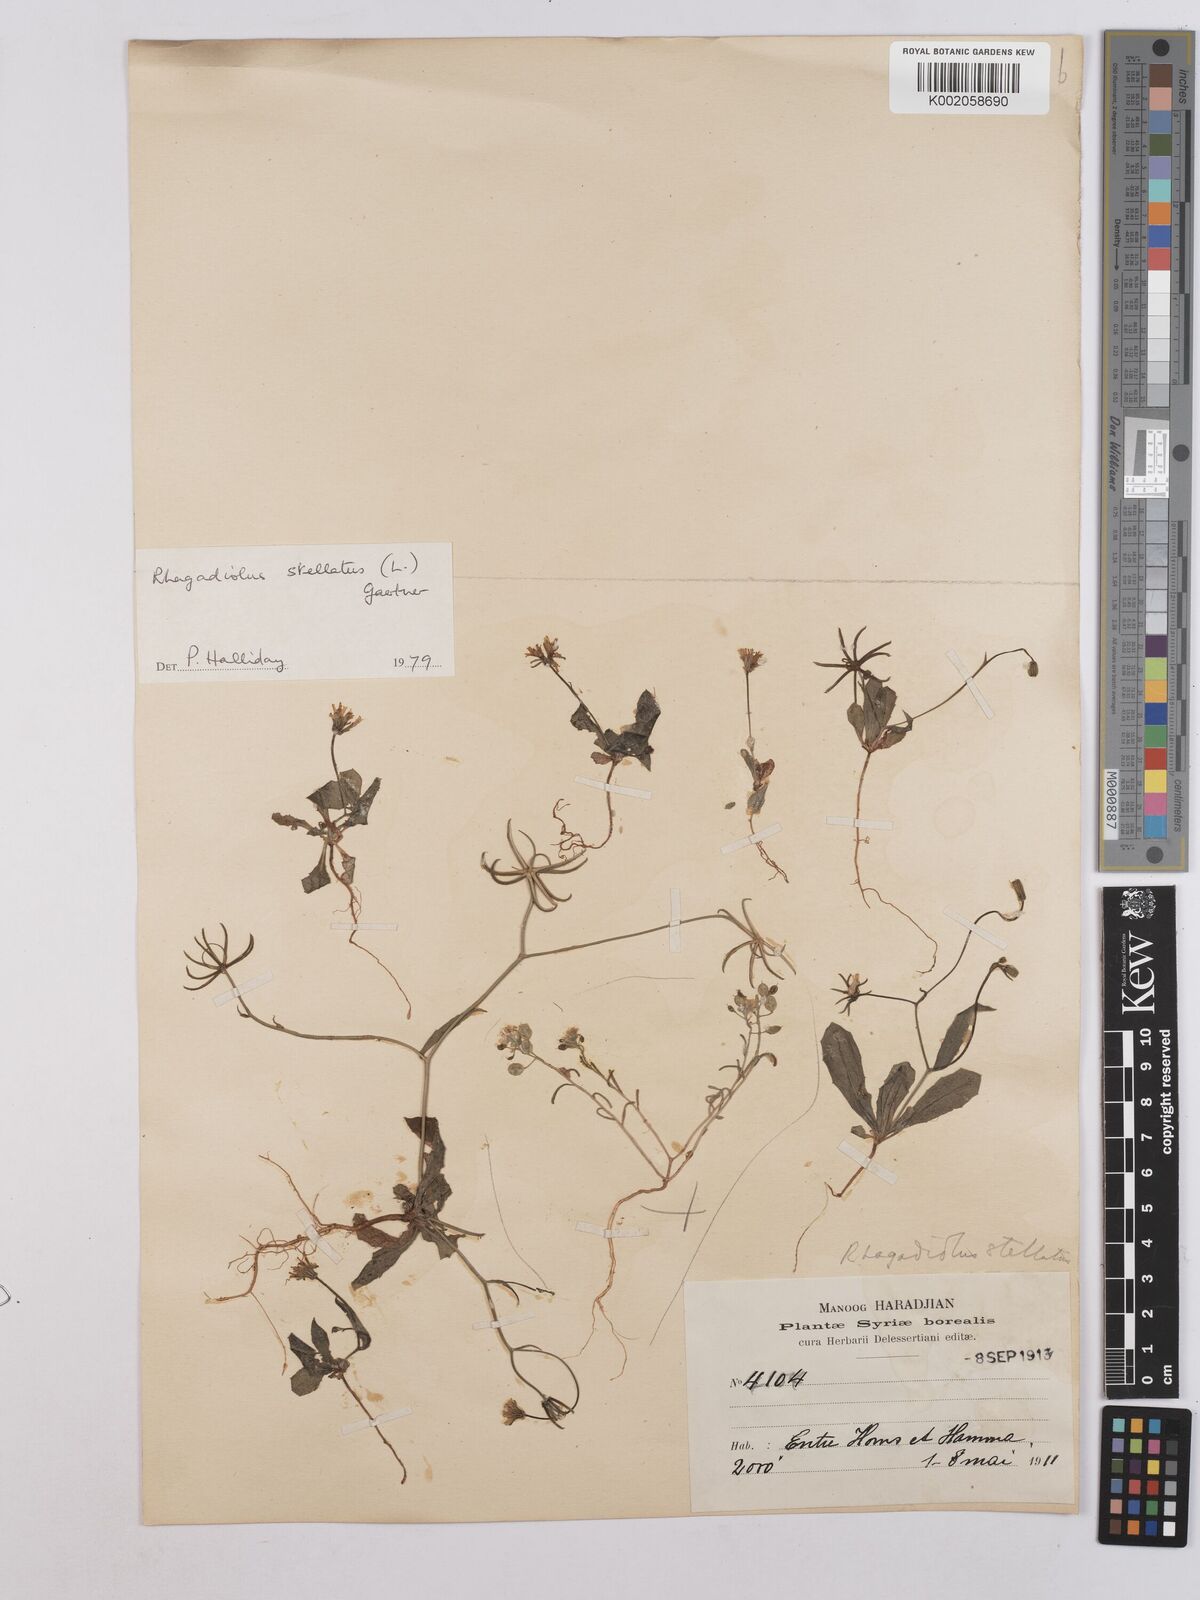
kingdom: Plantae
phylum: Tracheophyta
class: Magnoliopsida
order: Asterales
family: Asteraceae
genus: Rhagadiolus
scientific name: Rhagadiolus stellatus
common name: Star hawkbit
